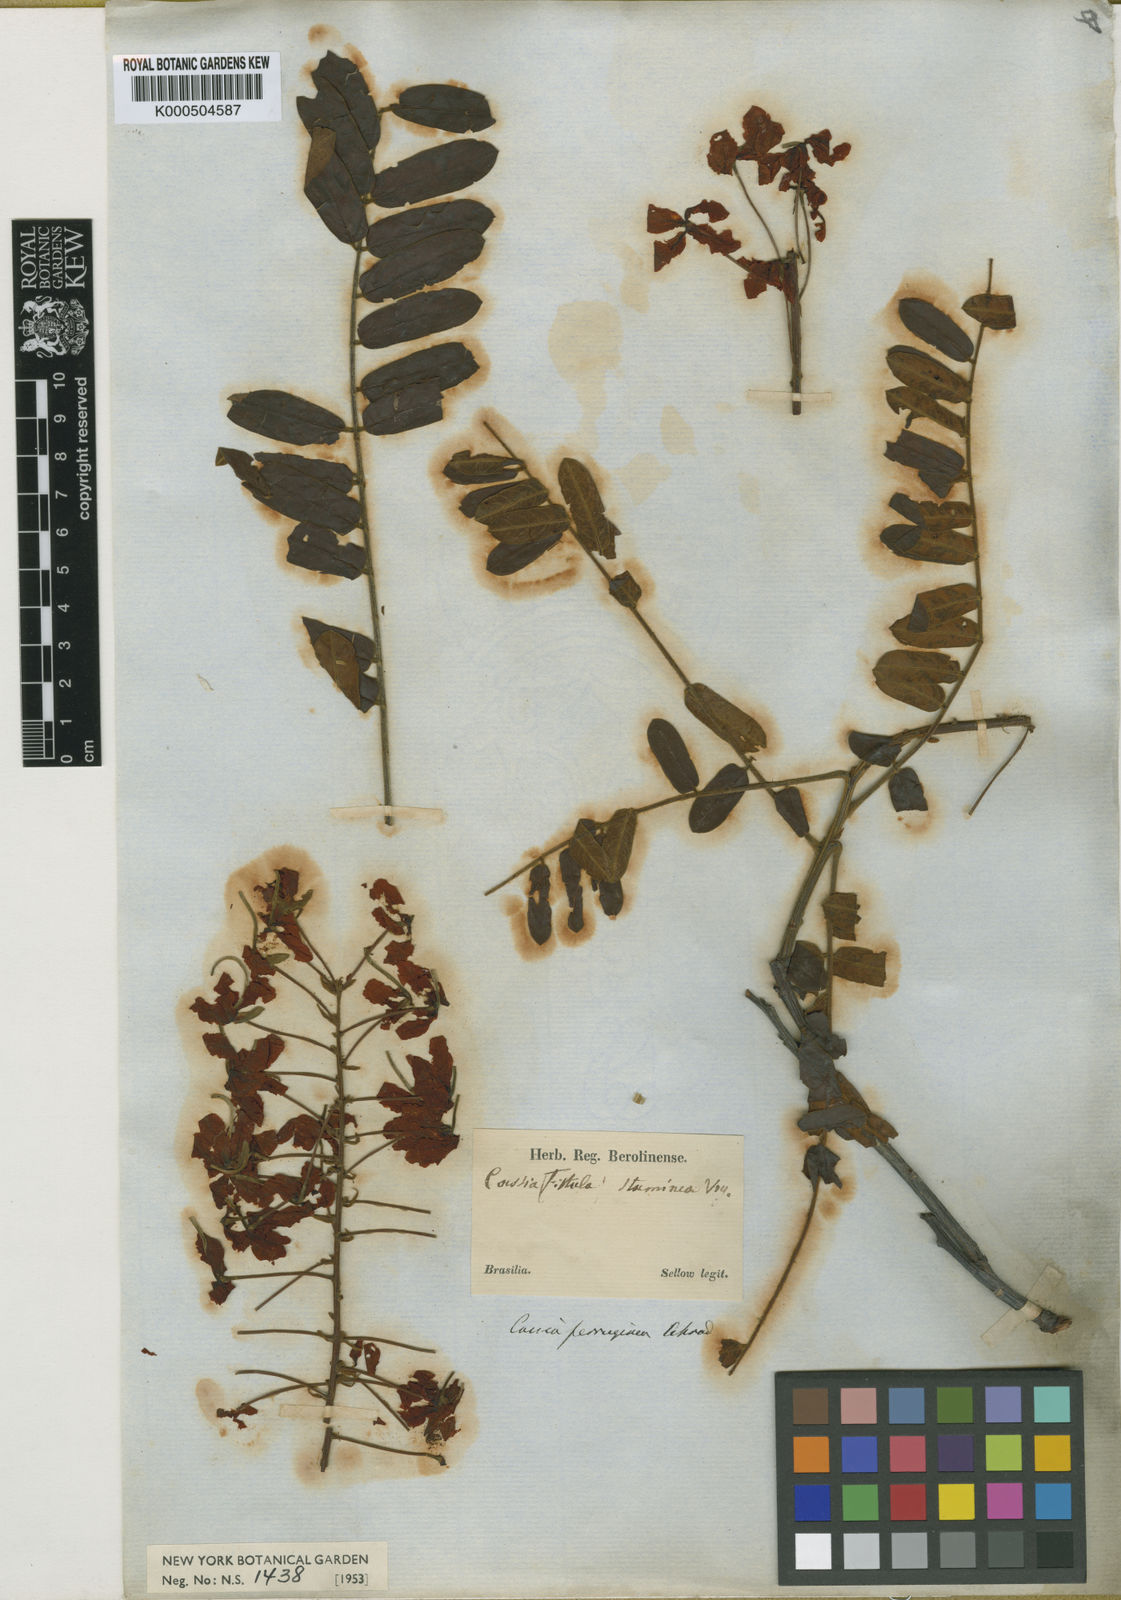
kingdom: Plantae
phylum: Tracheophyta
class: Magnoliopsida
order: Fabales
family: Fabaceae
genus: Cassia
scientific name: Cassia ferruginea
